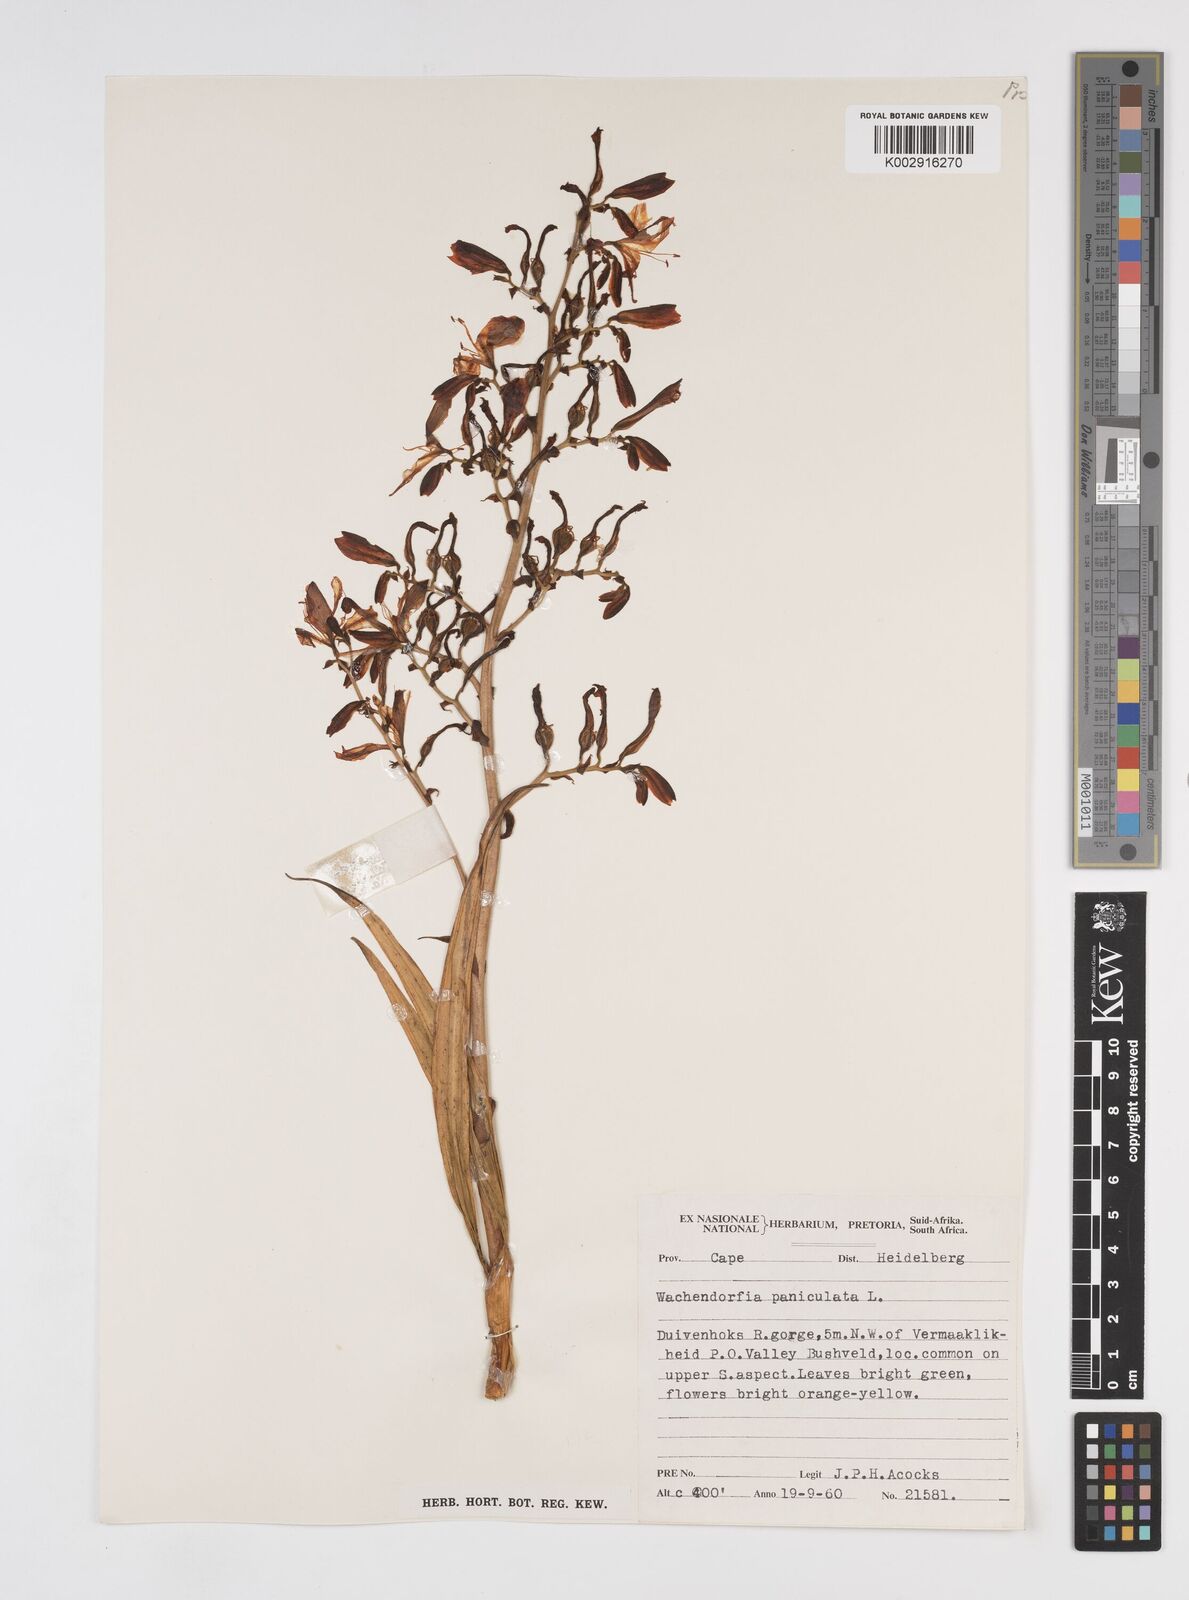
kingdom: Plantae
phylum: Tracheophyta
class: Liliopsida
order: Commelinales
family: Haemodoraceae
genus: Wachendorfia
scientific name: Wachendorfia paniculata
